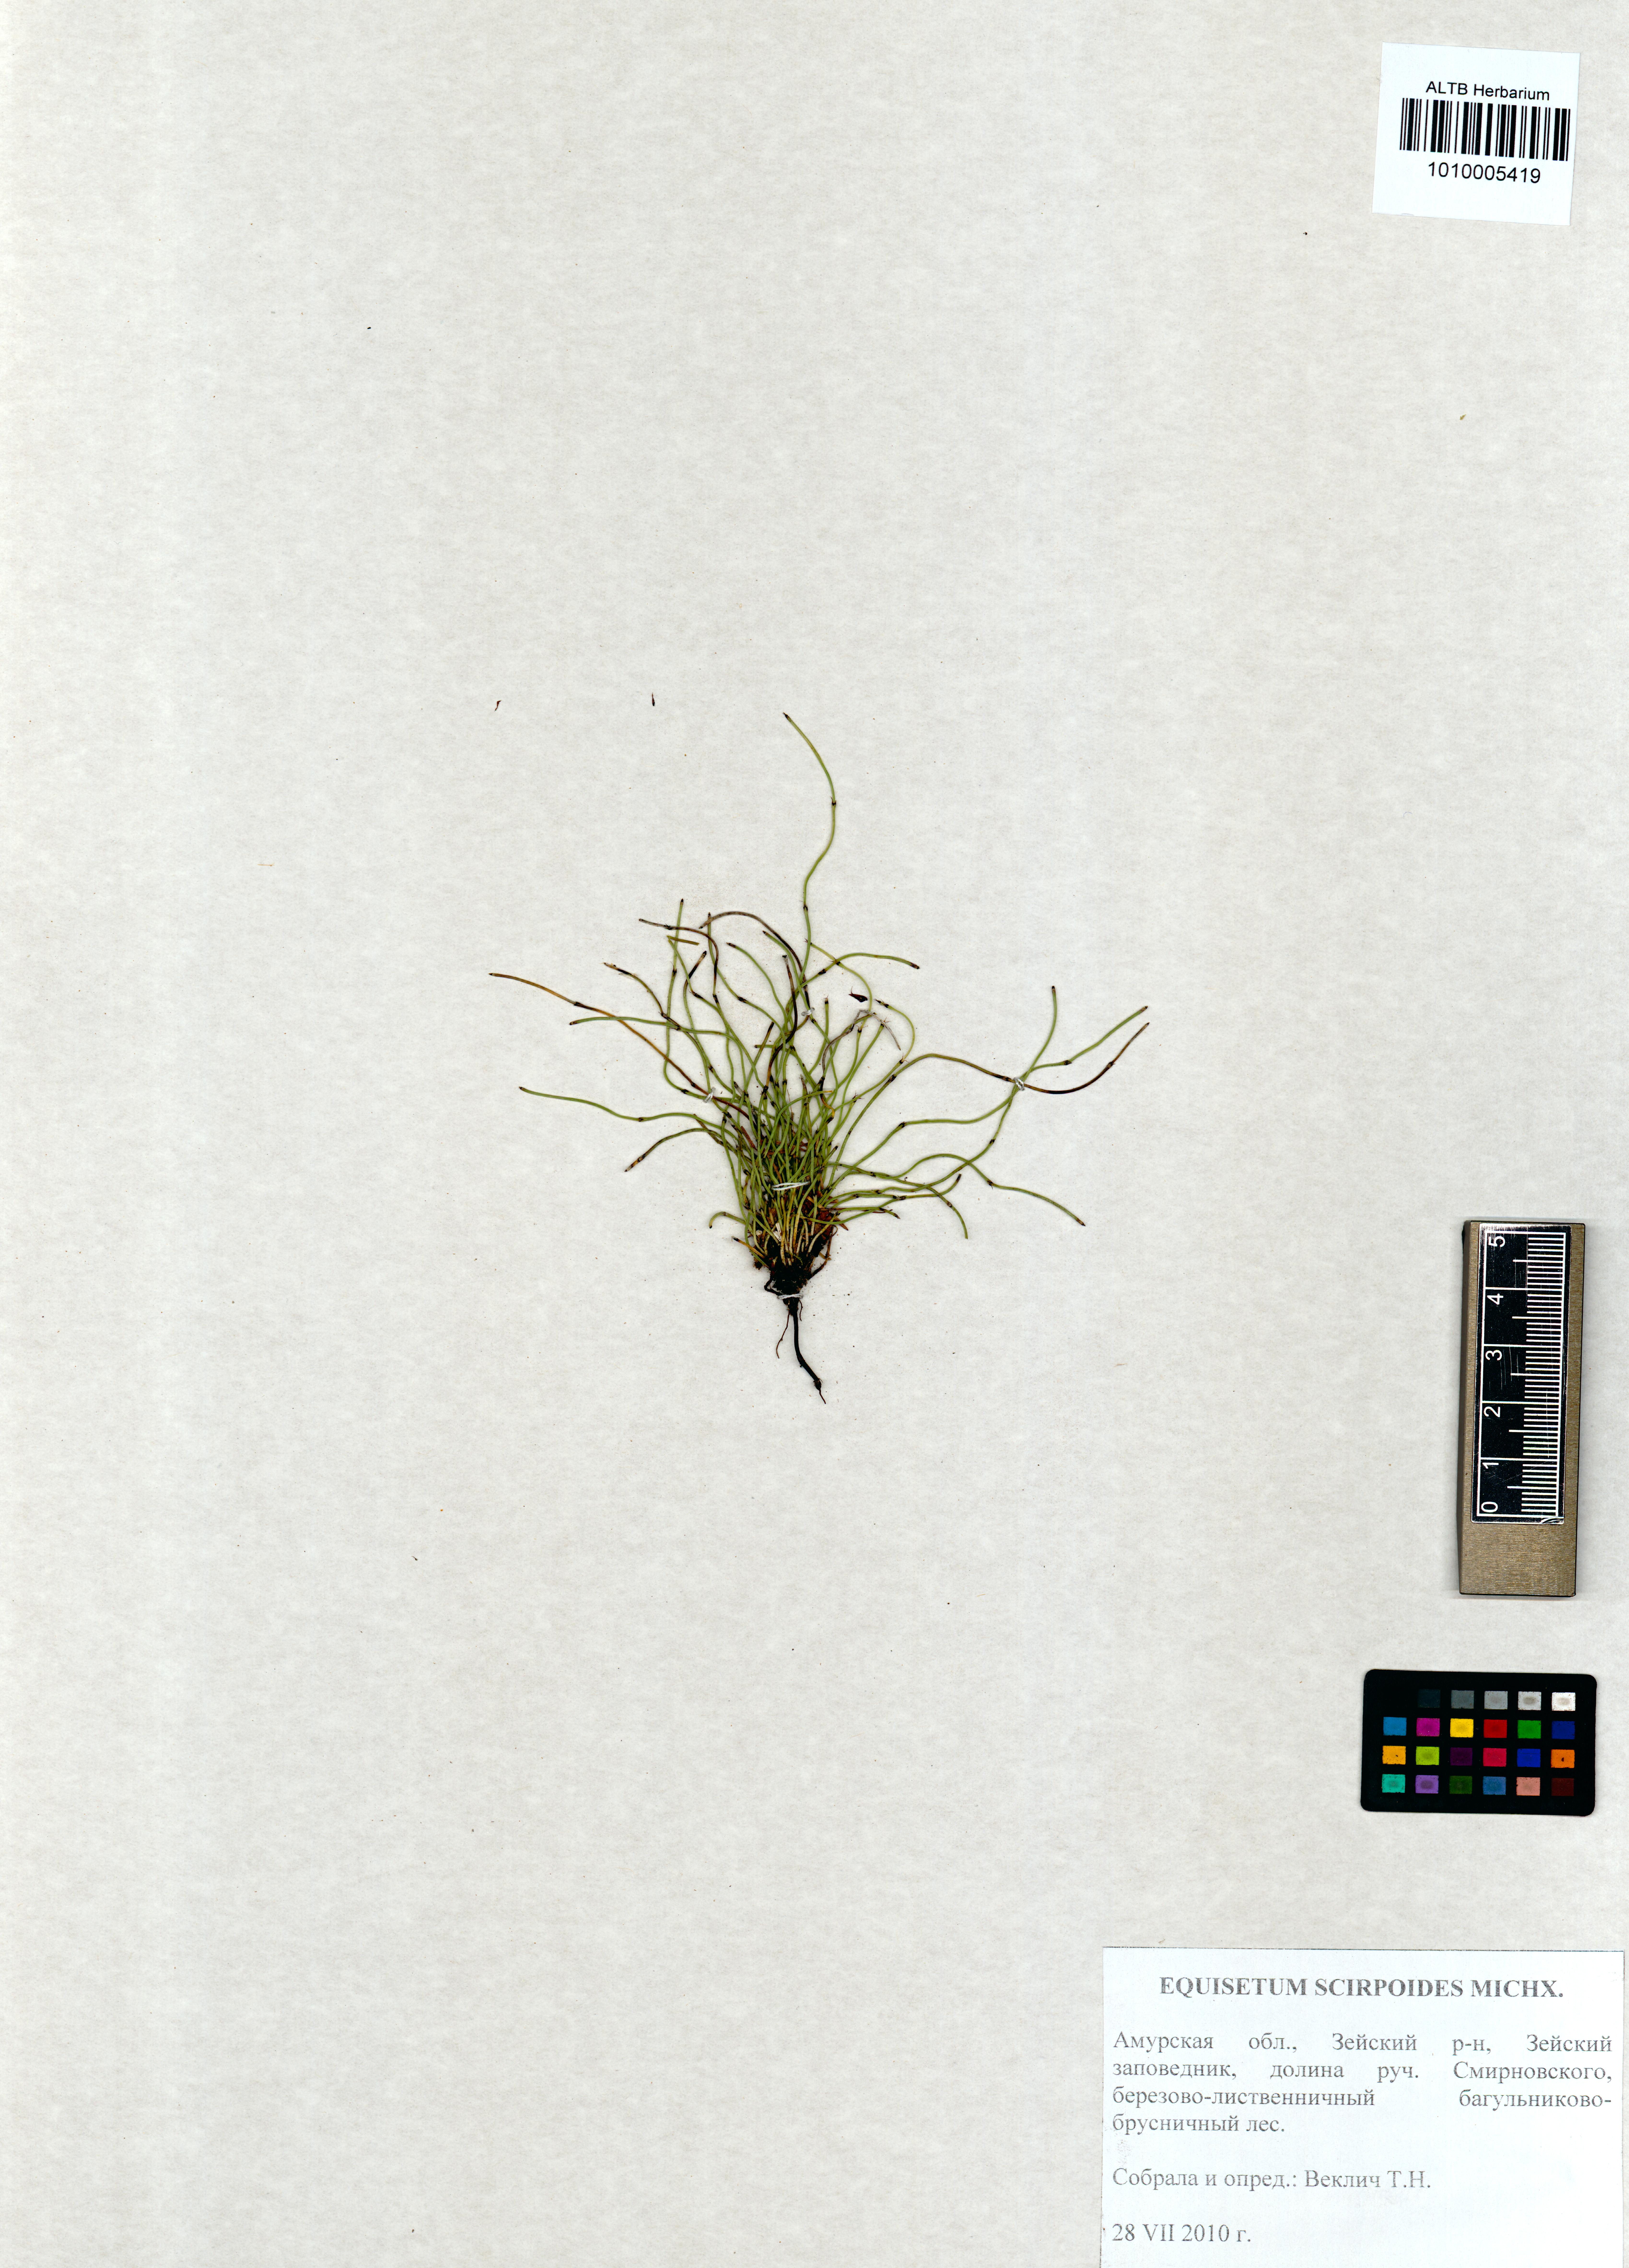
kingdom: Plantae
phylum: Tracheophyta
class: Polypodiopsida
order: Equisetales
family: Equisetaceae
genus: Equisetum
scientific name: Equisetum scirpoides
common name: Delicate horsetail
